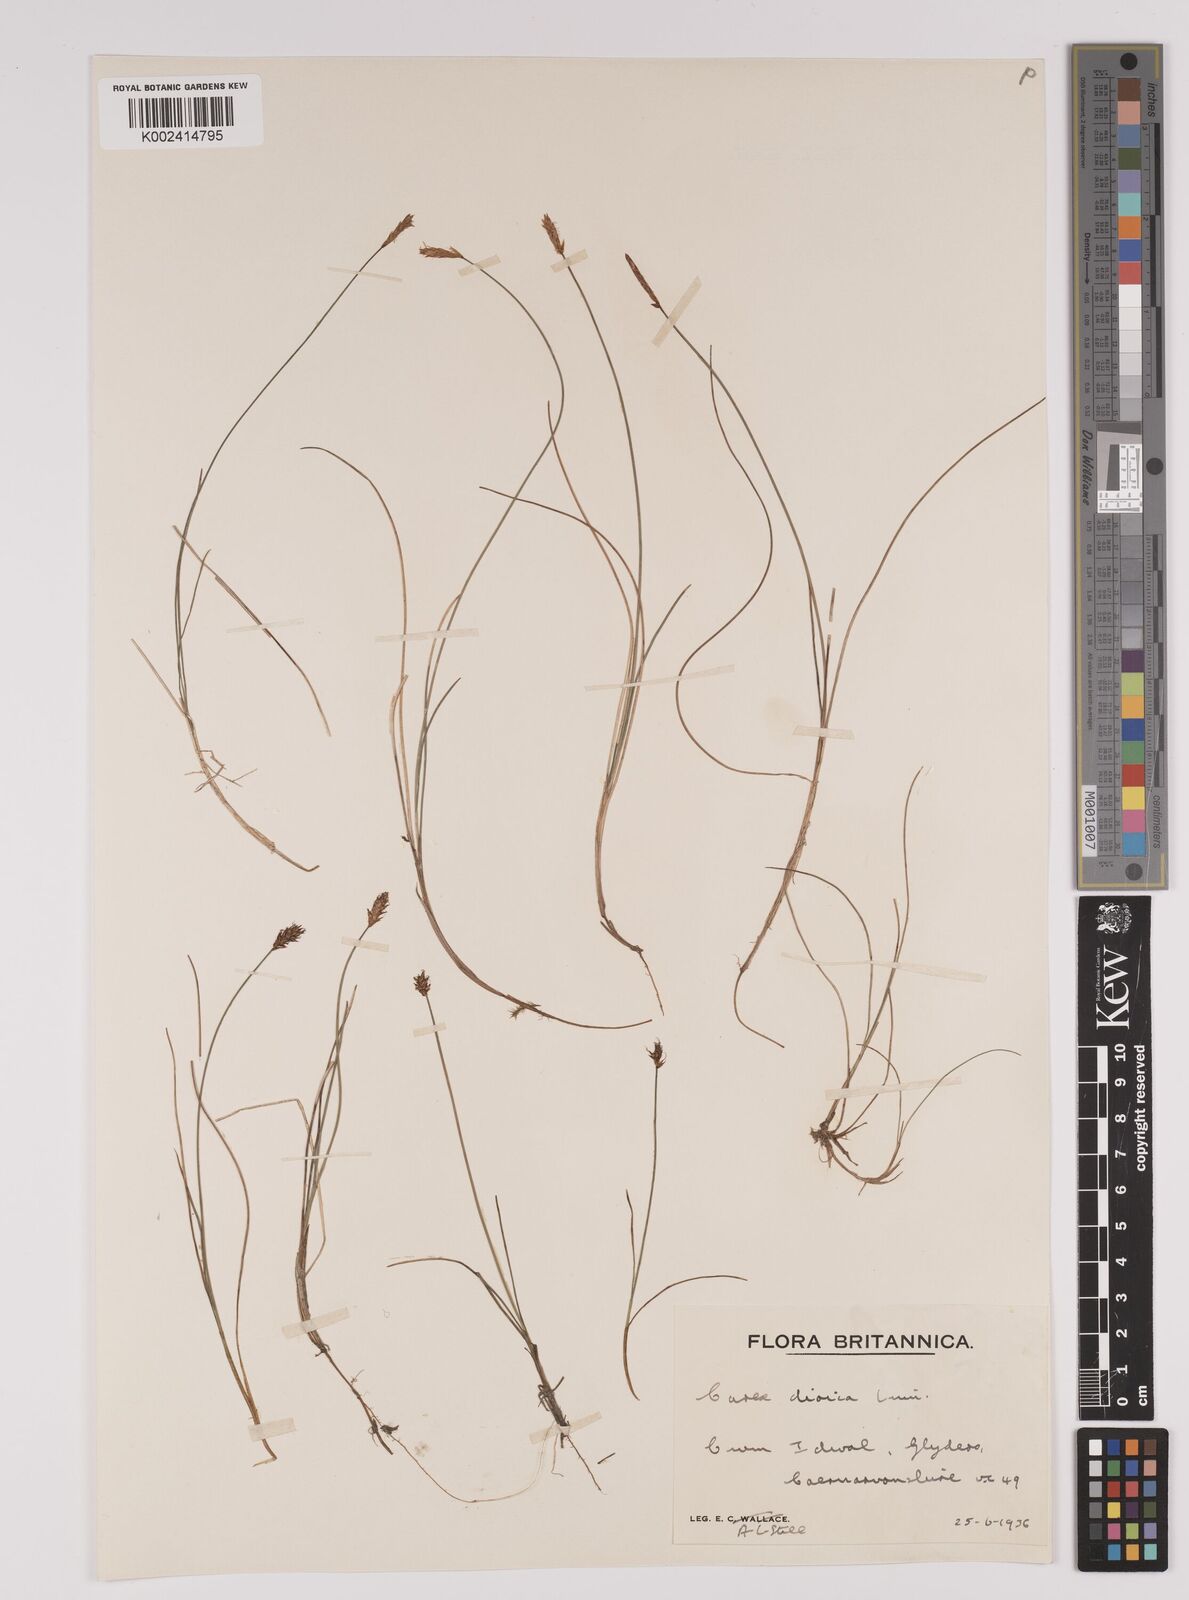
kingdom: Plantae
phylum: Tracheophyta
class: Liliopsida
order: Poales
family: Cyperaceae
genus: Carex
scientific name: Carex dioica
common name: Dioecious sedge
